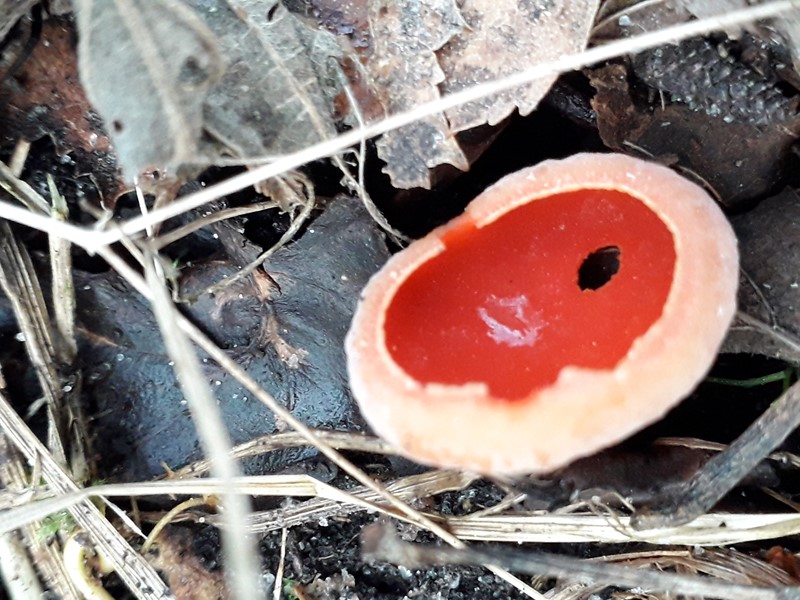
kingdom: Fungi
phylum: Ascomycota
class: Pezizomycetes
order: Pezizales
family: Sarcoscyphaceae
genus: Sarcoscypha
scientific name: Sarcoscypha austriaca
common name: krølhåret pragtbæger
